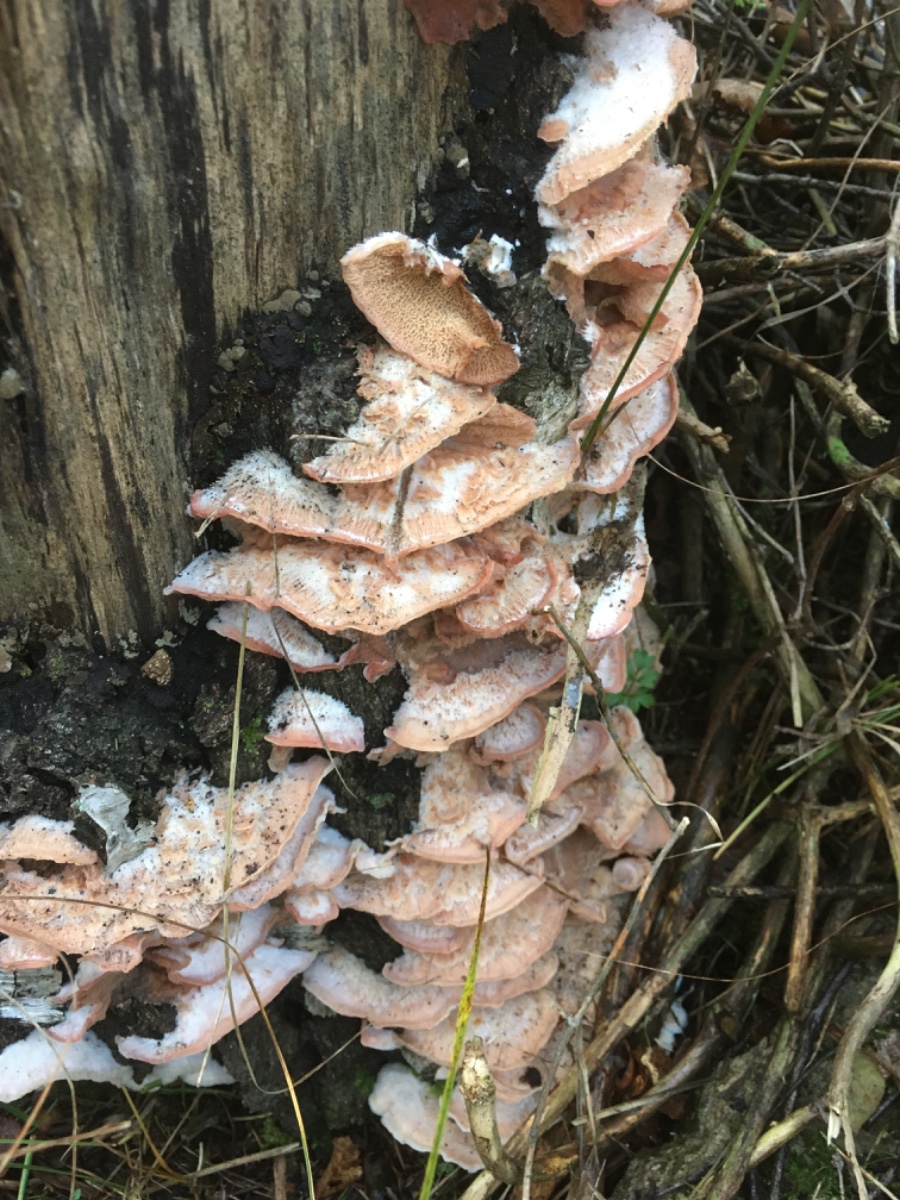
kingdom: Fungi
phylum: Basidiomycota
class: Agaricomycetes
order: Polyporales
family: Meruliaceae
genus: Phlebia
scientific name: Phlebia tremellosa
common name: bævrende åresvamp
